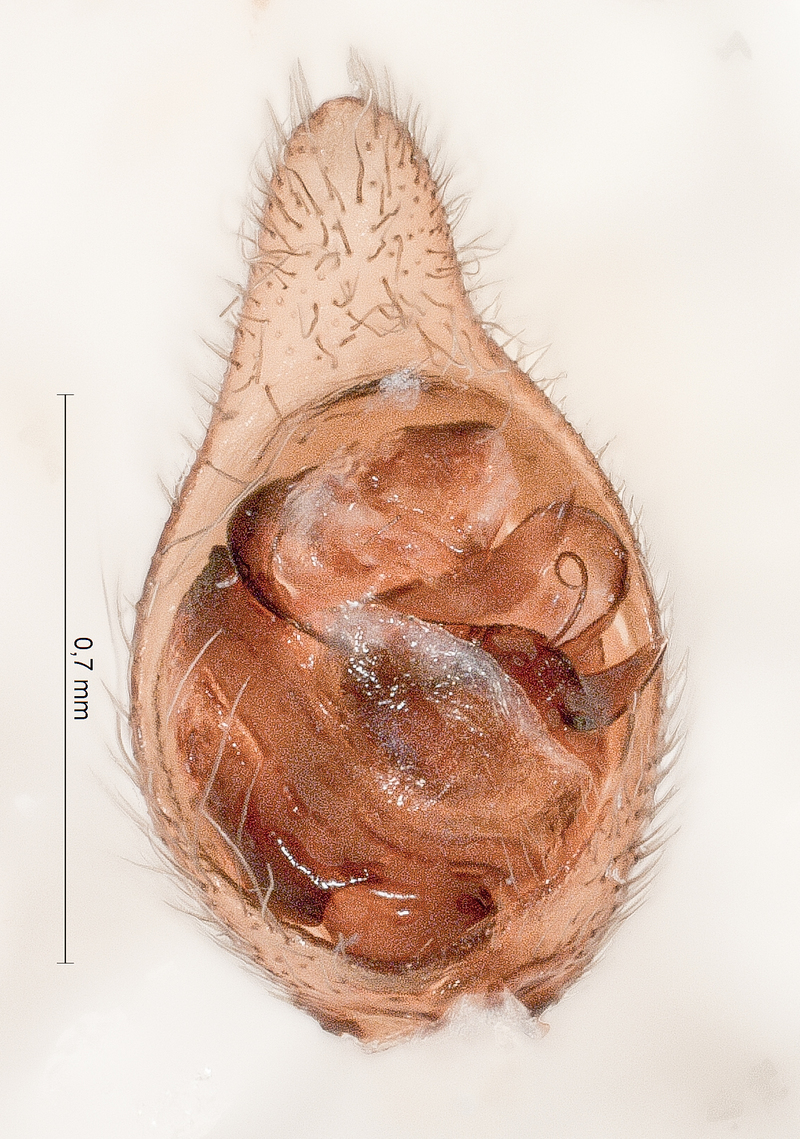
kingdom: Animalia
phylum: Arthropoda
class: Arachnida
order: Araneae
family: Lycosidae
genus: Trochosa
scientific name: Trochosa terricola
